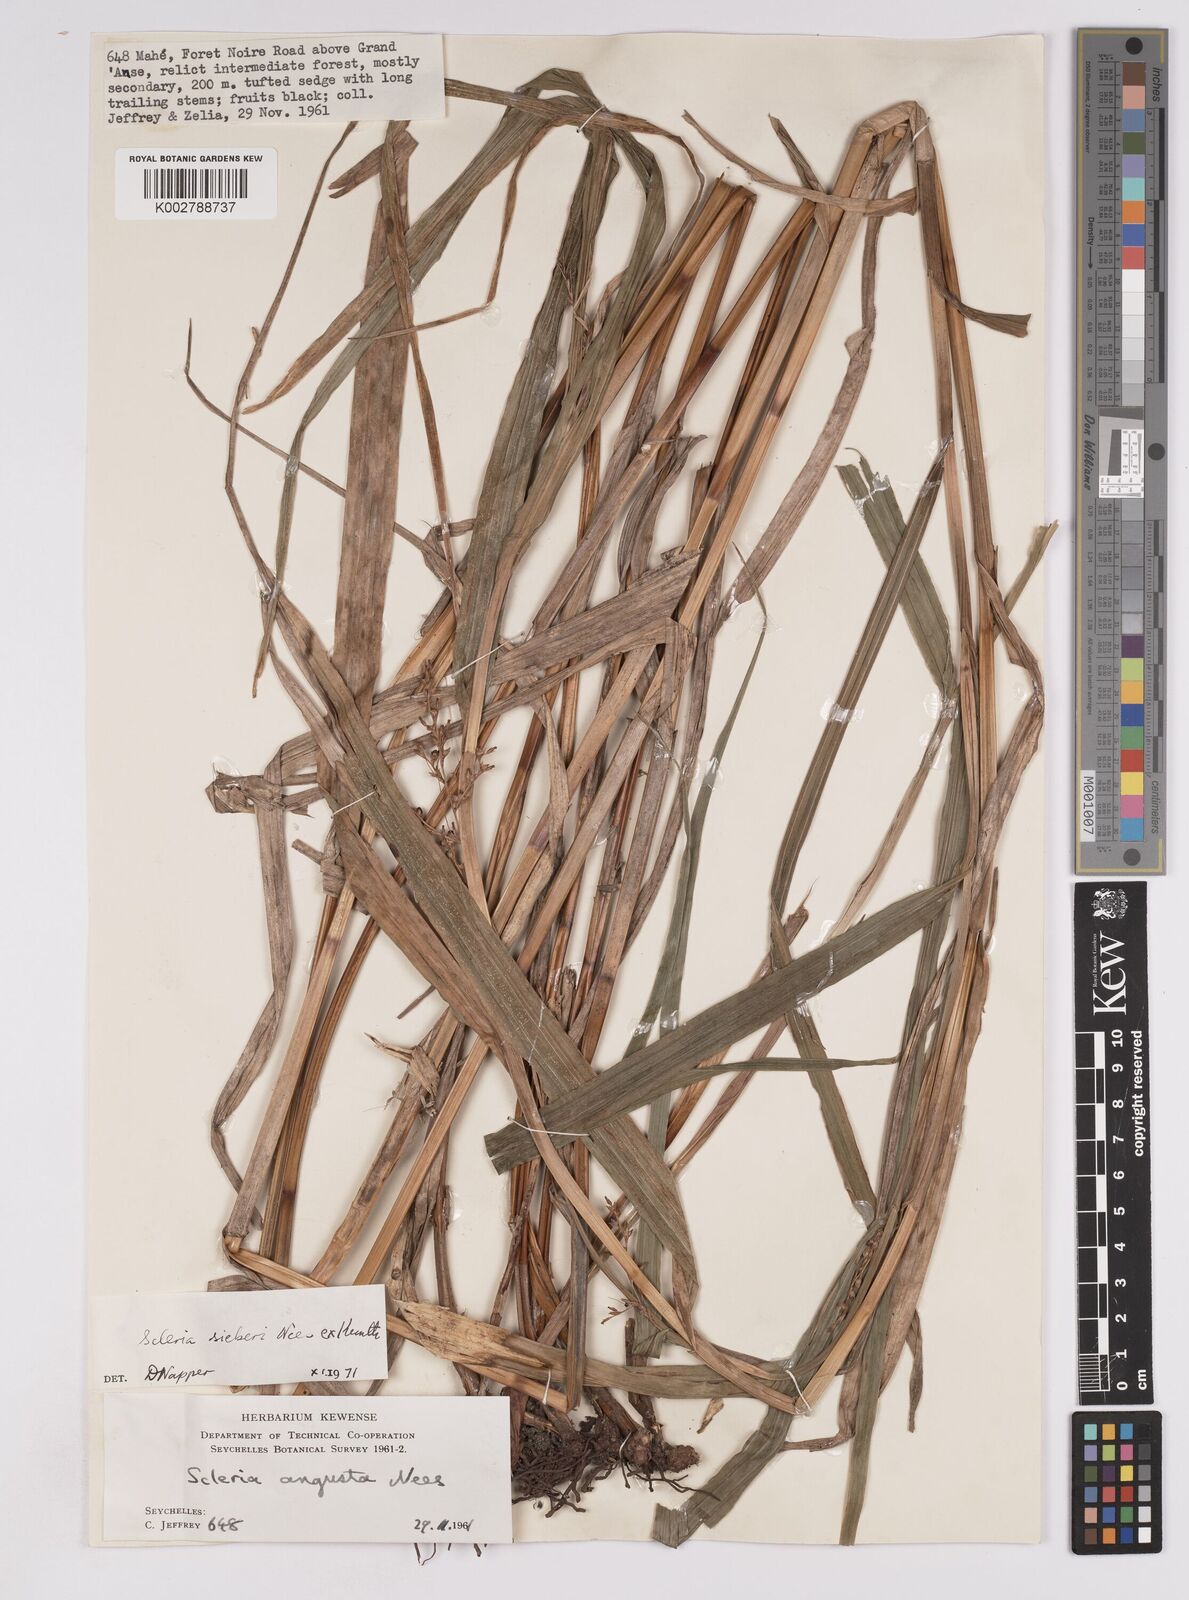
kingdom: Plantae
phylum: Tracheophyta
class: Liliopsida
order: Poales
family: Cyperaceae
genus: Scleria
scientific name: Scleria gaertneri
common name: Cortadera blanca
